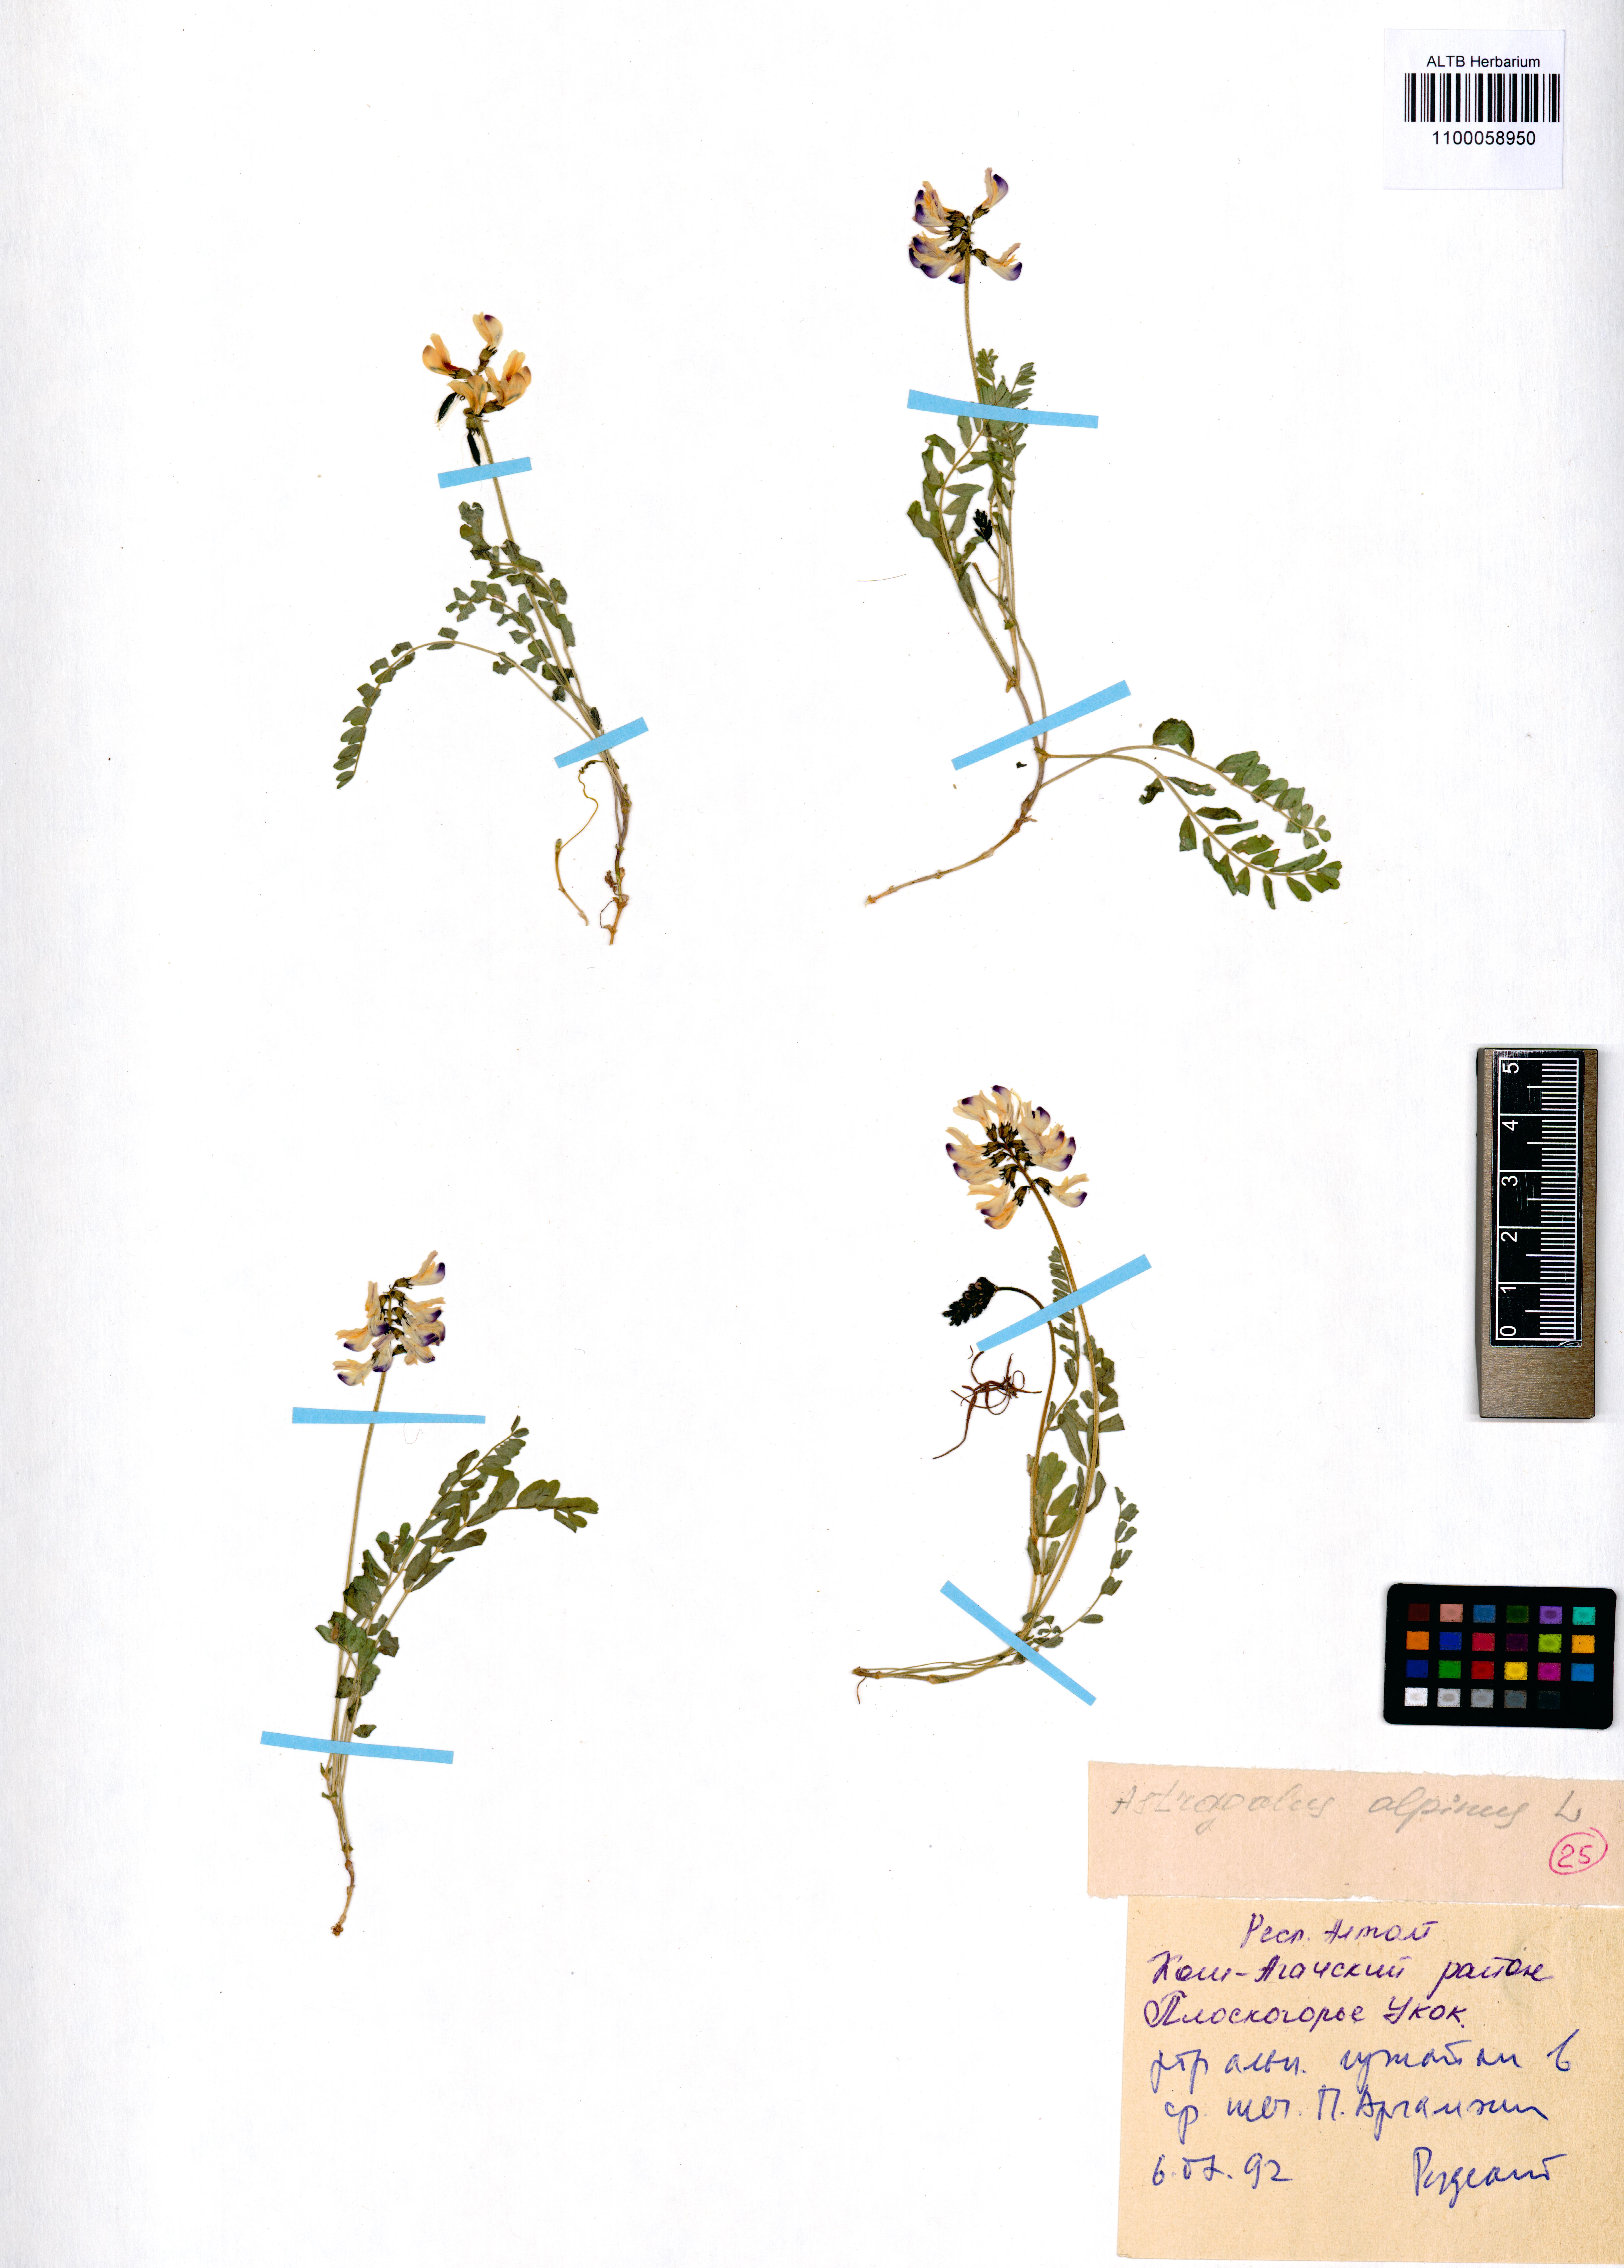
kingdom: Plantae
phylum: Tracheophyta
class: Magnoliopsida
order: Fabales
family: Fabaceae
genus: Astragalus
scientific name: Astragalus alopecurus
